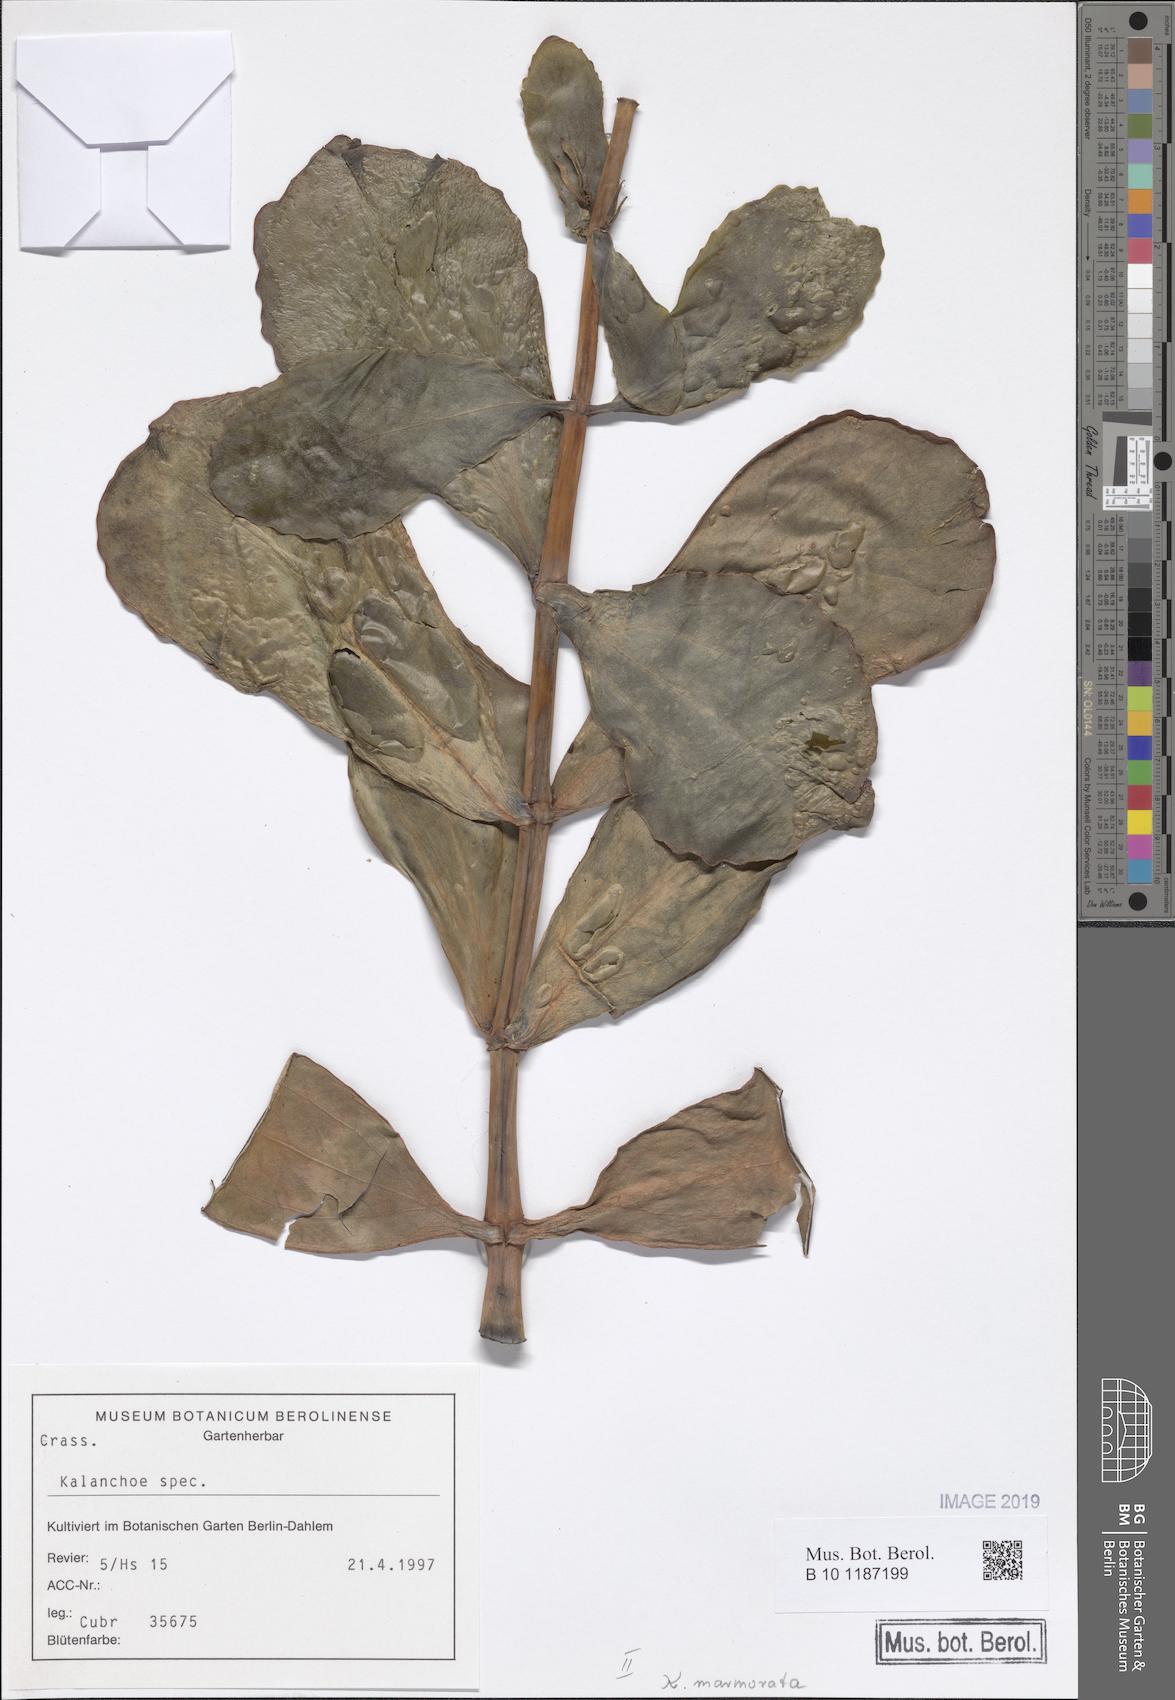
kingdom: Plantae
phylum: Tracheophyta
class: Magnoliopsida
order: Saxifragales
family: Crassulaceae
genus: Kalanchoe
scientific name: Kalanchoe marmorata
